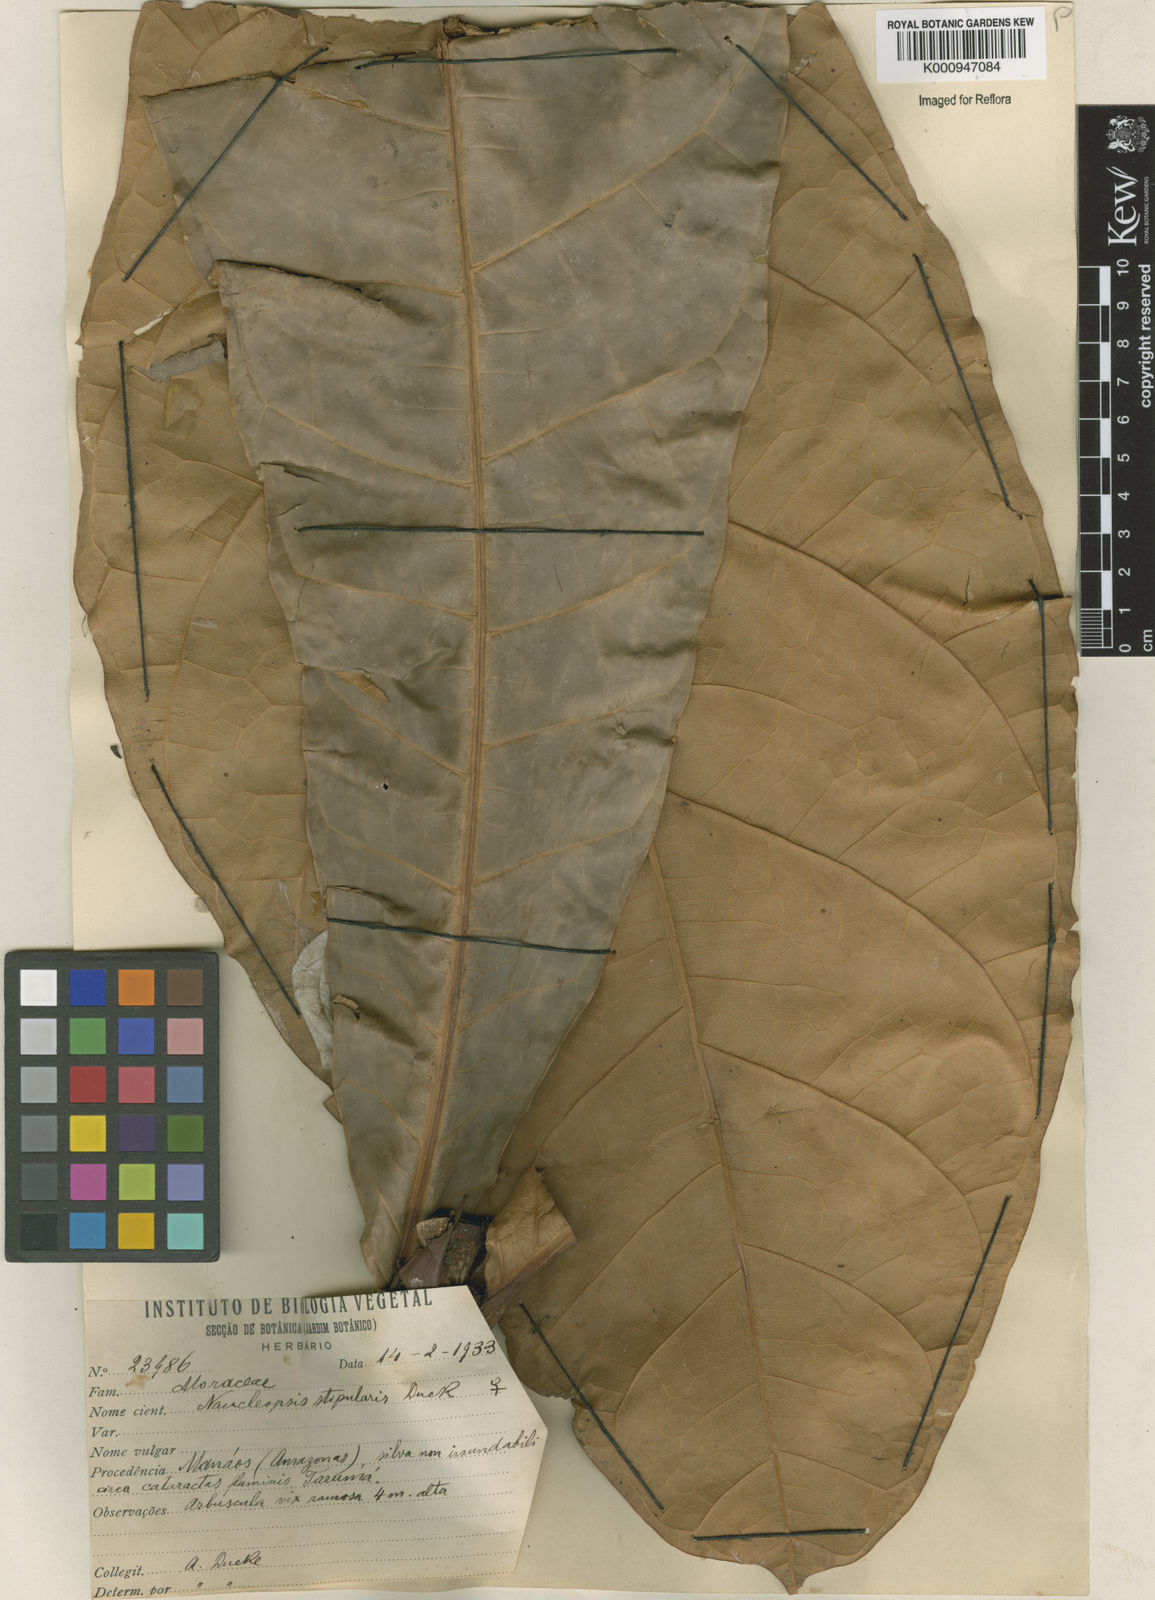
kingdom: Plantae
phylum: Tracheophyta
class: Magnoliopsida
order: Rosales
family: Moraceae
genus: Naucleopsis
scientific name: Naucleopsis stipularis
